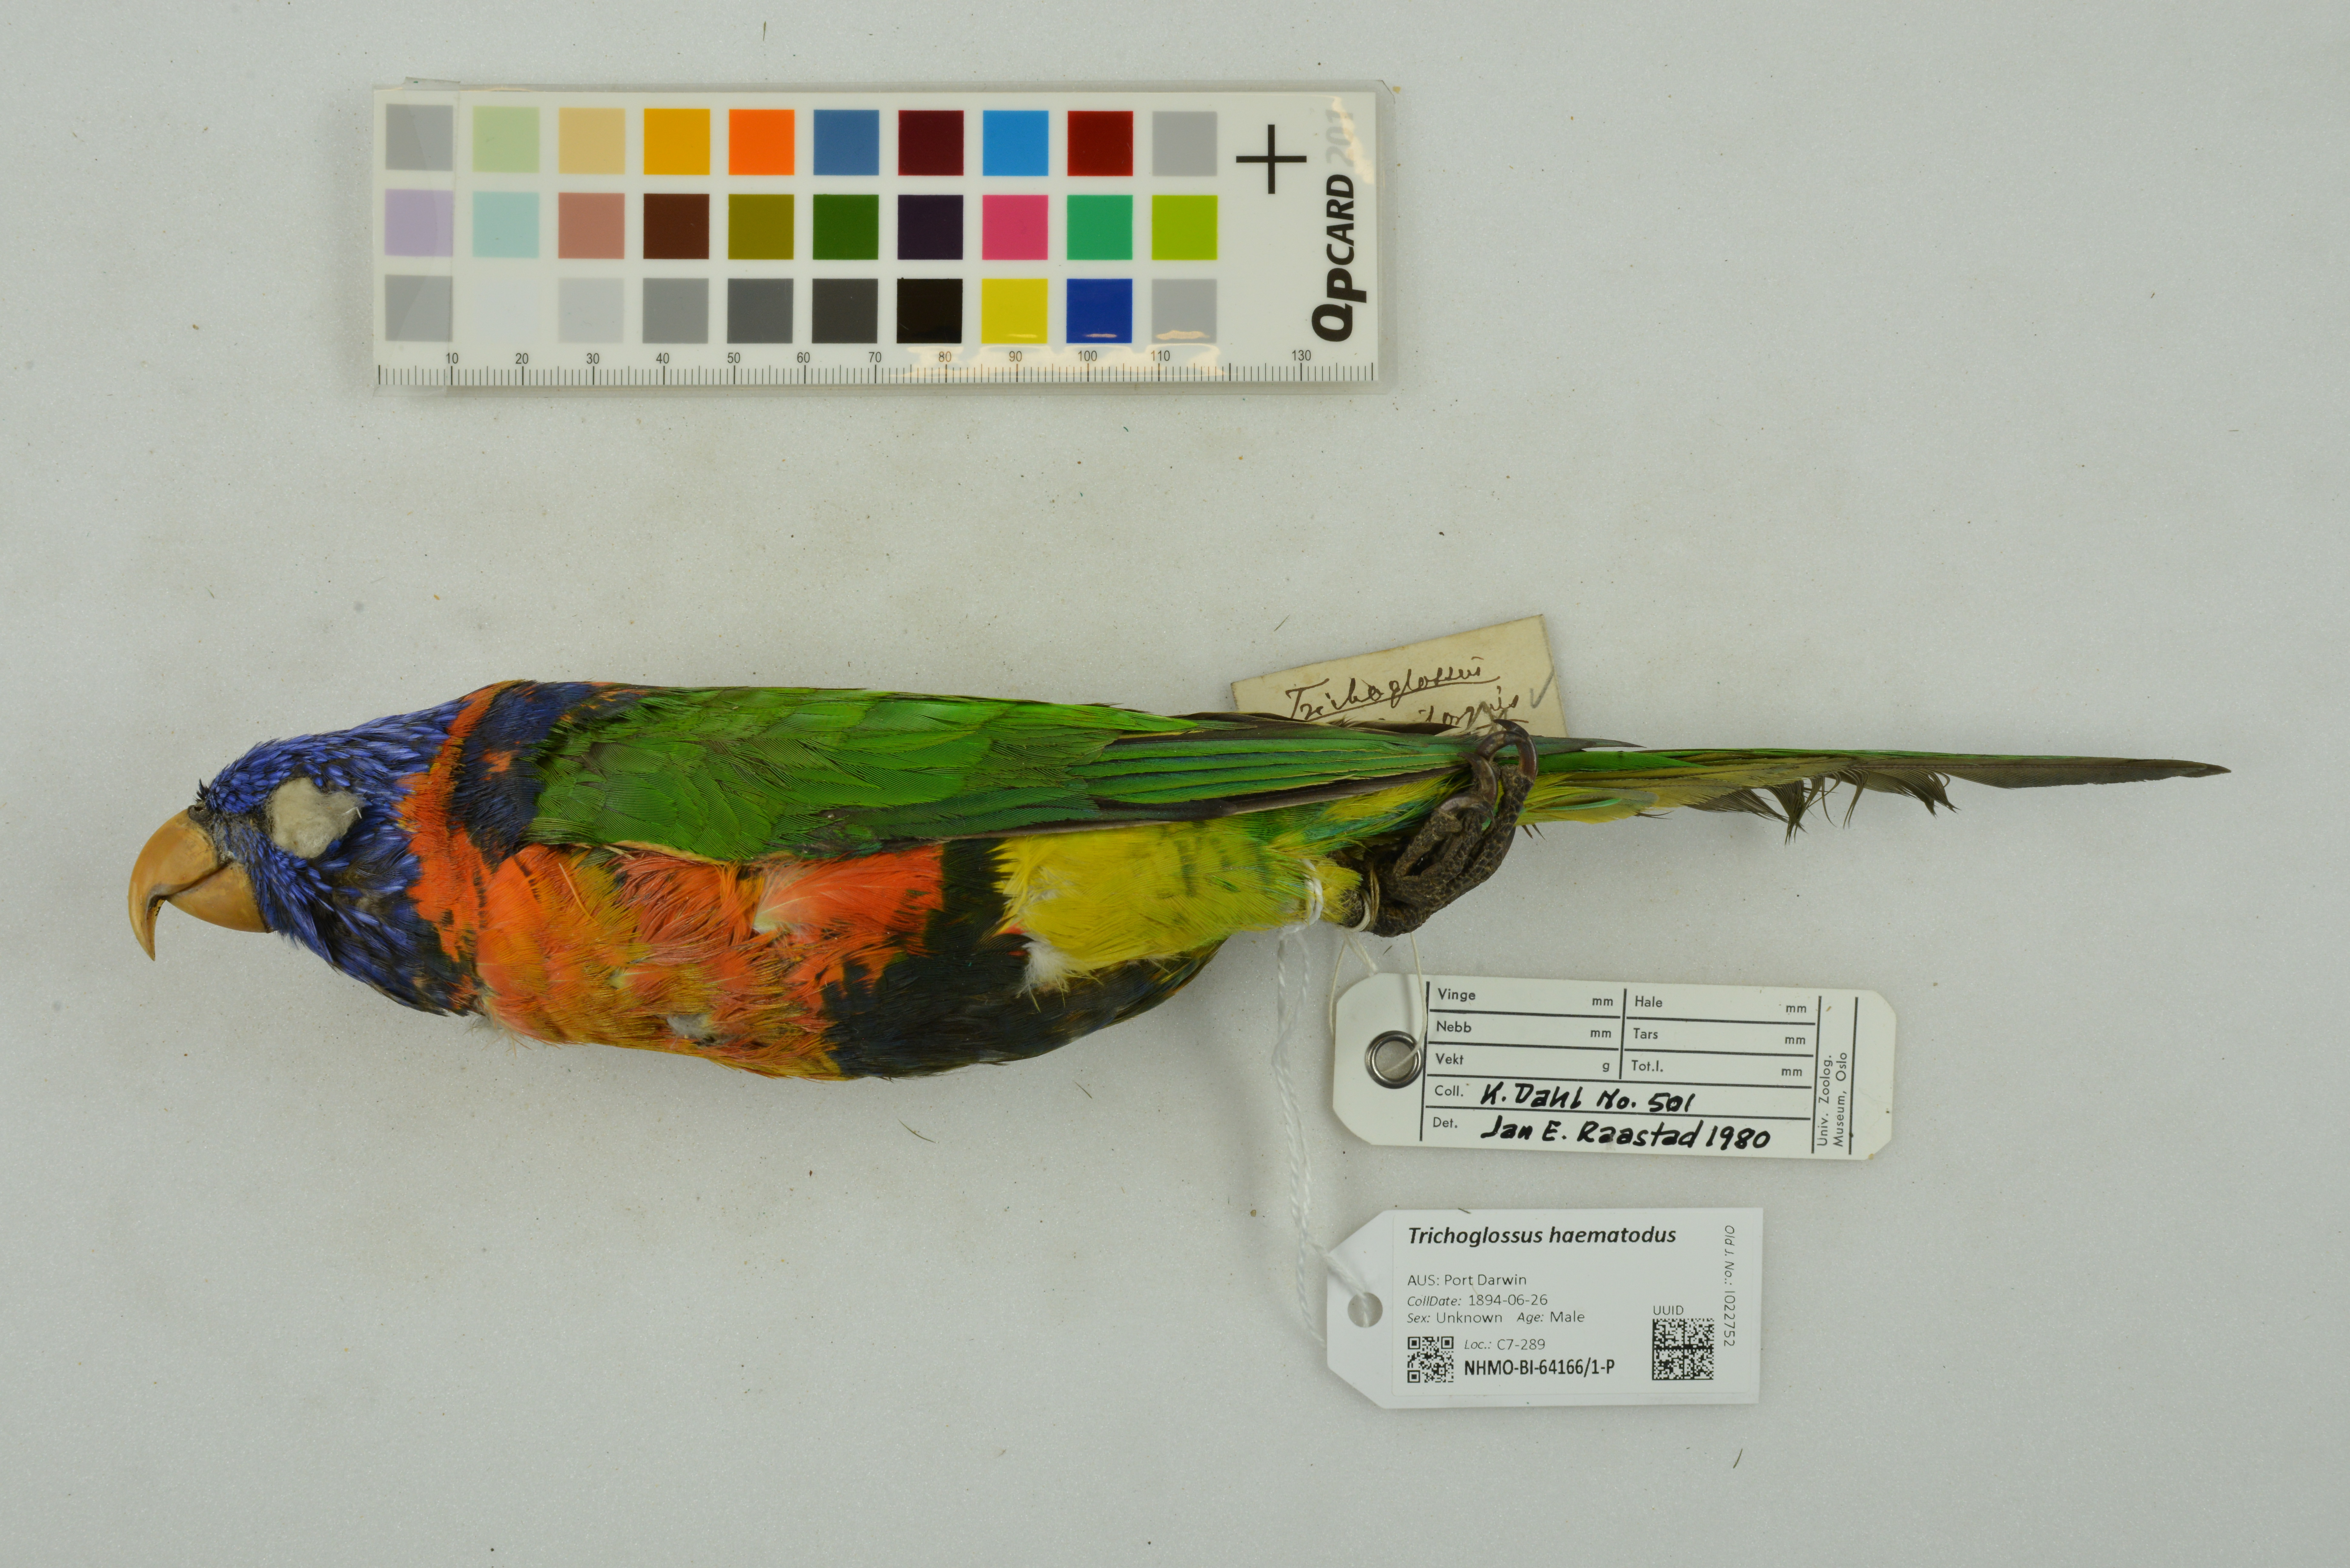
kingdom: Animalia
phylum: Chordata
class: Aves
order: Psittaciformes
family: Psittacidae
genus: Trichoglossus
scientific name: Trichoglossus haematodus
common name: Coconut lorikeet
